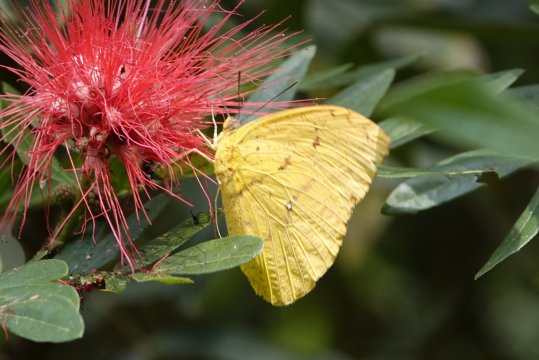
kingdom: Animalia
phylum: Arthropoda
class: Insecta
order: Lepidoptera
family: Pieridae
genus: Phoebis
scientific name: Phoebis argante
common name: Apricot Sulphur
